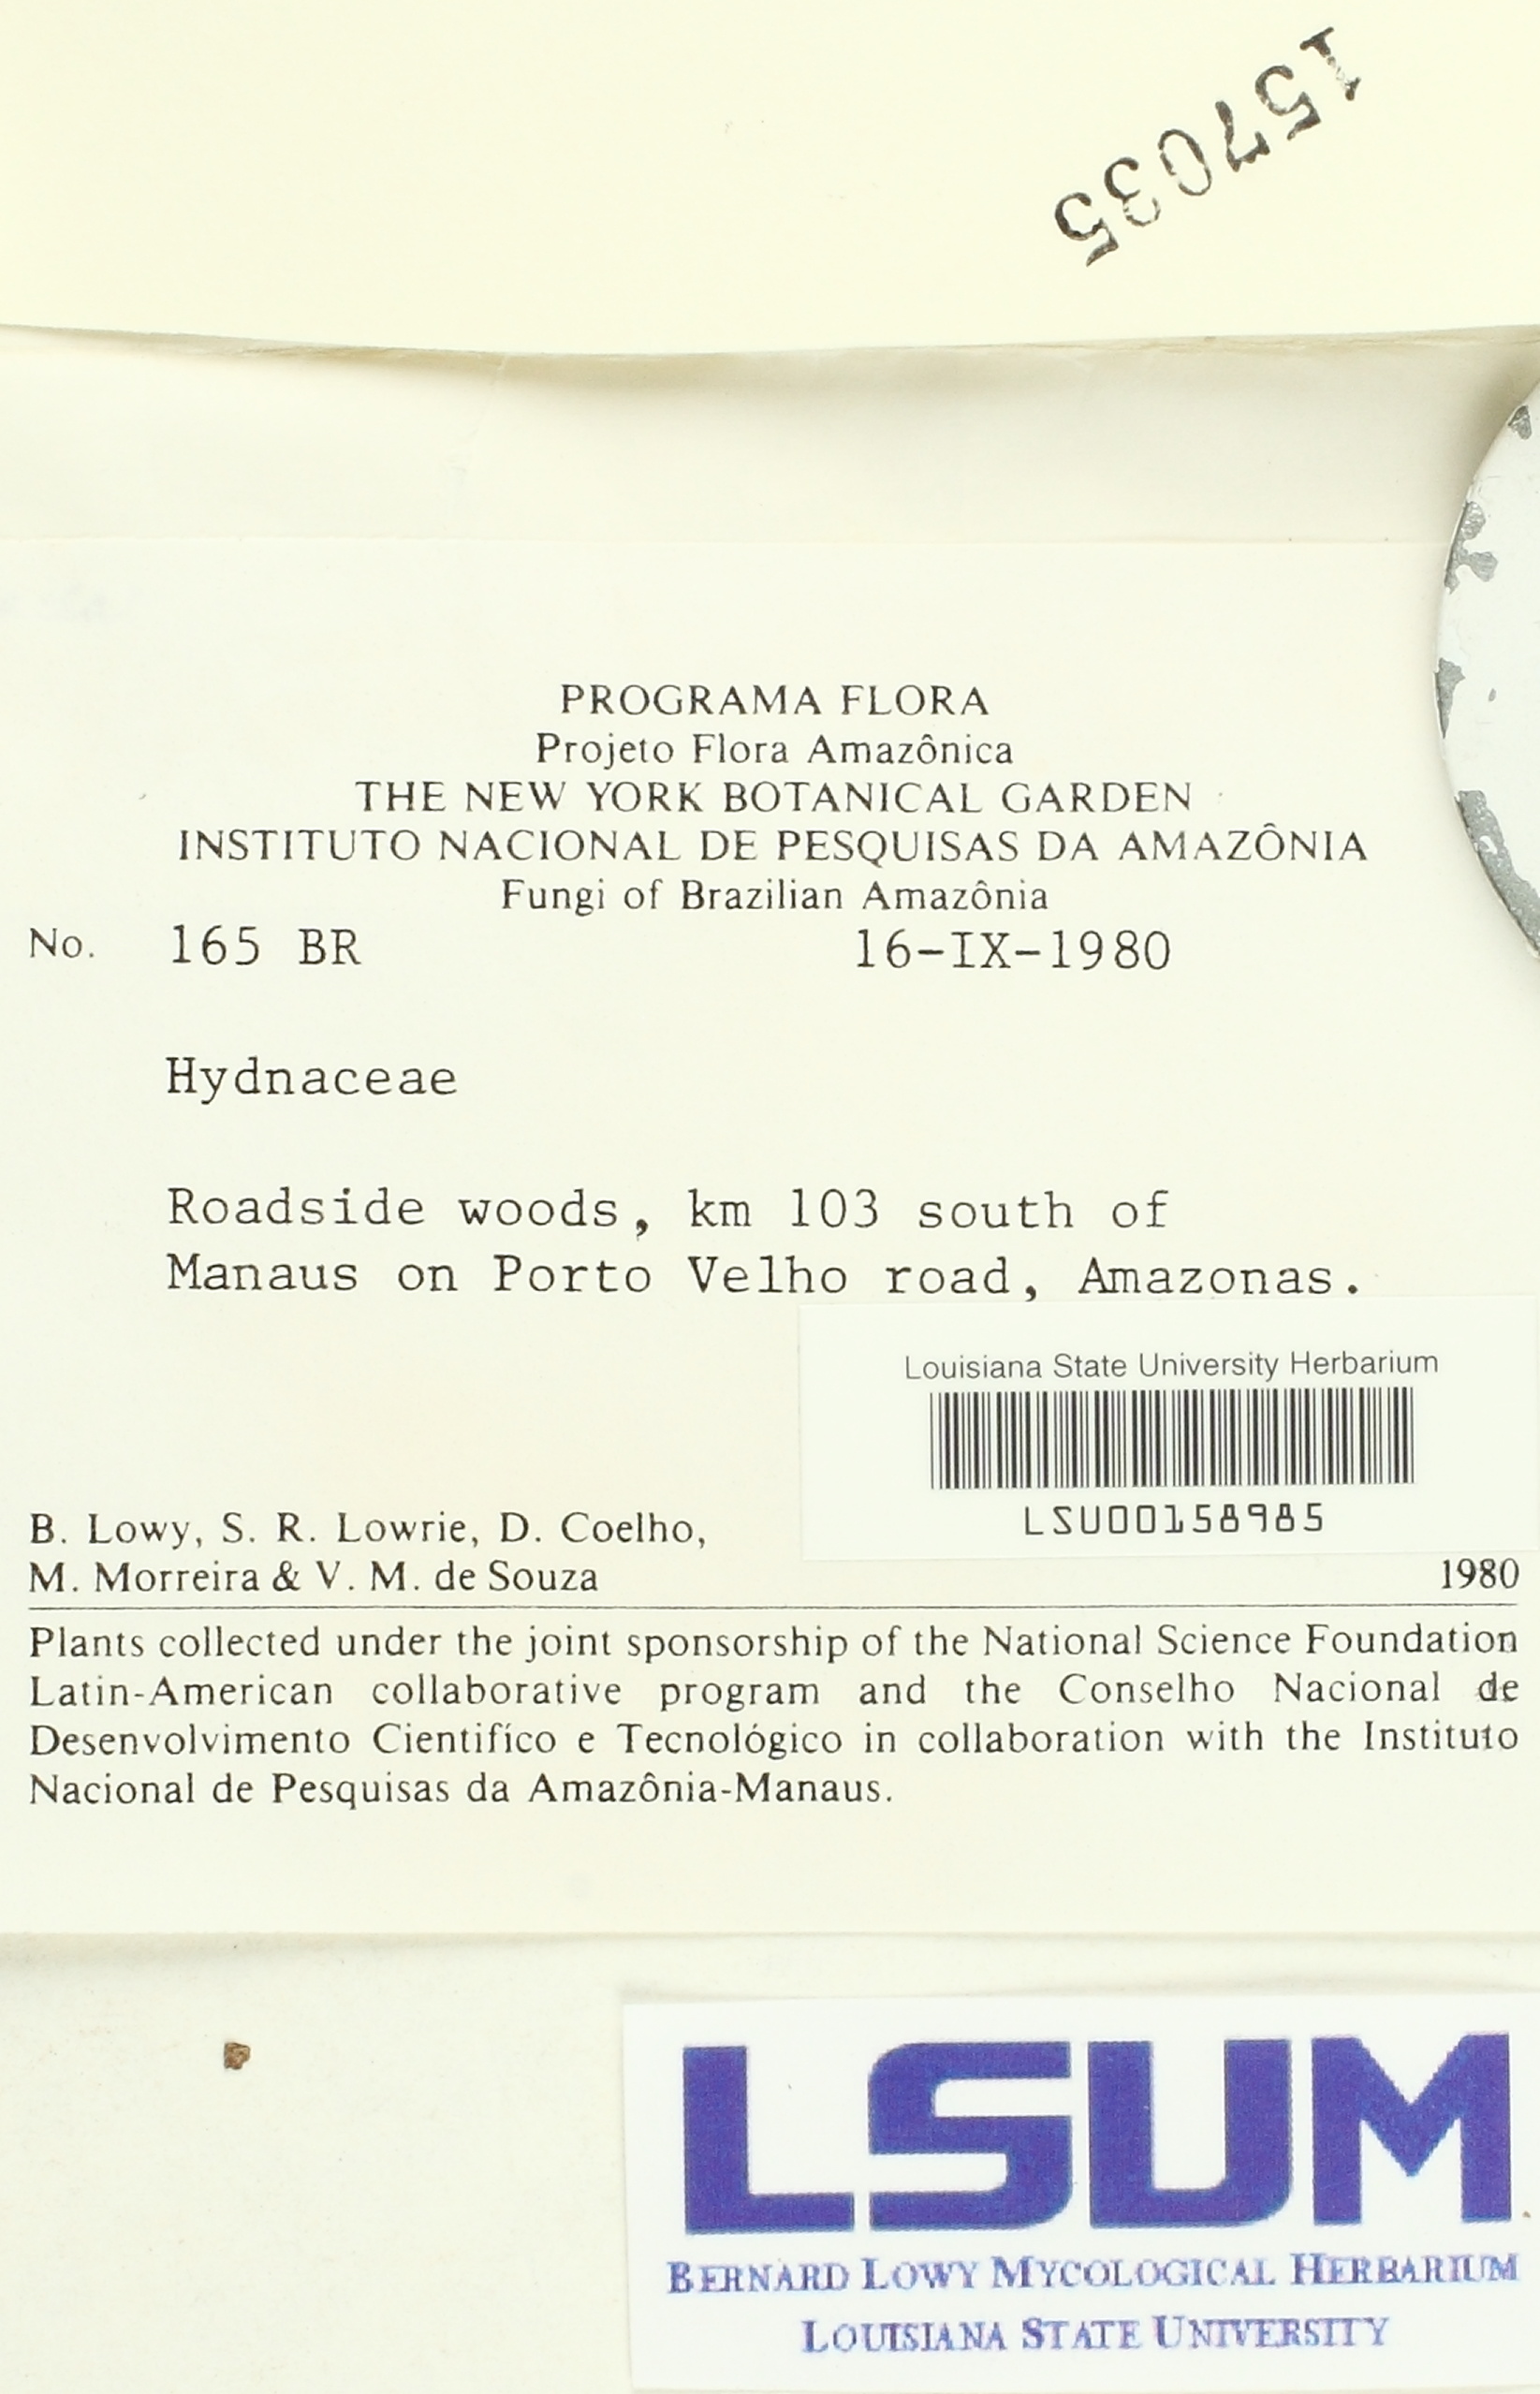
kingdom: Fungi
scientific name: Fungi
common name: Fungi
